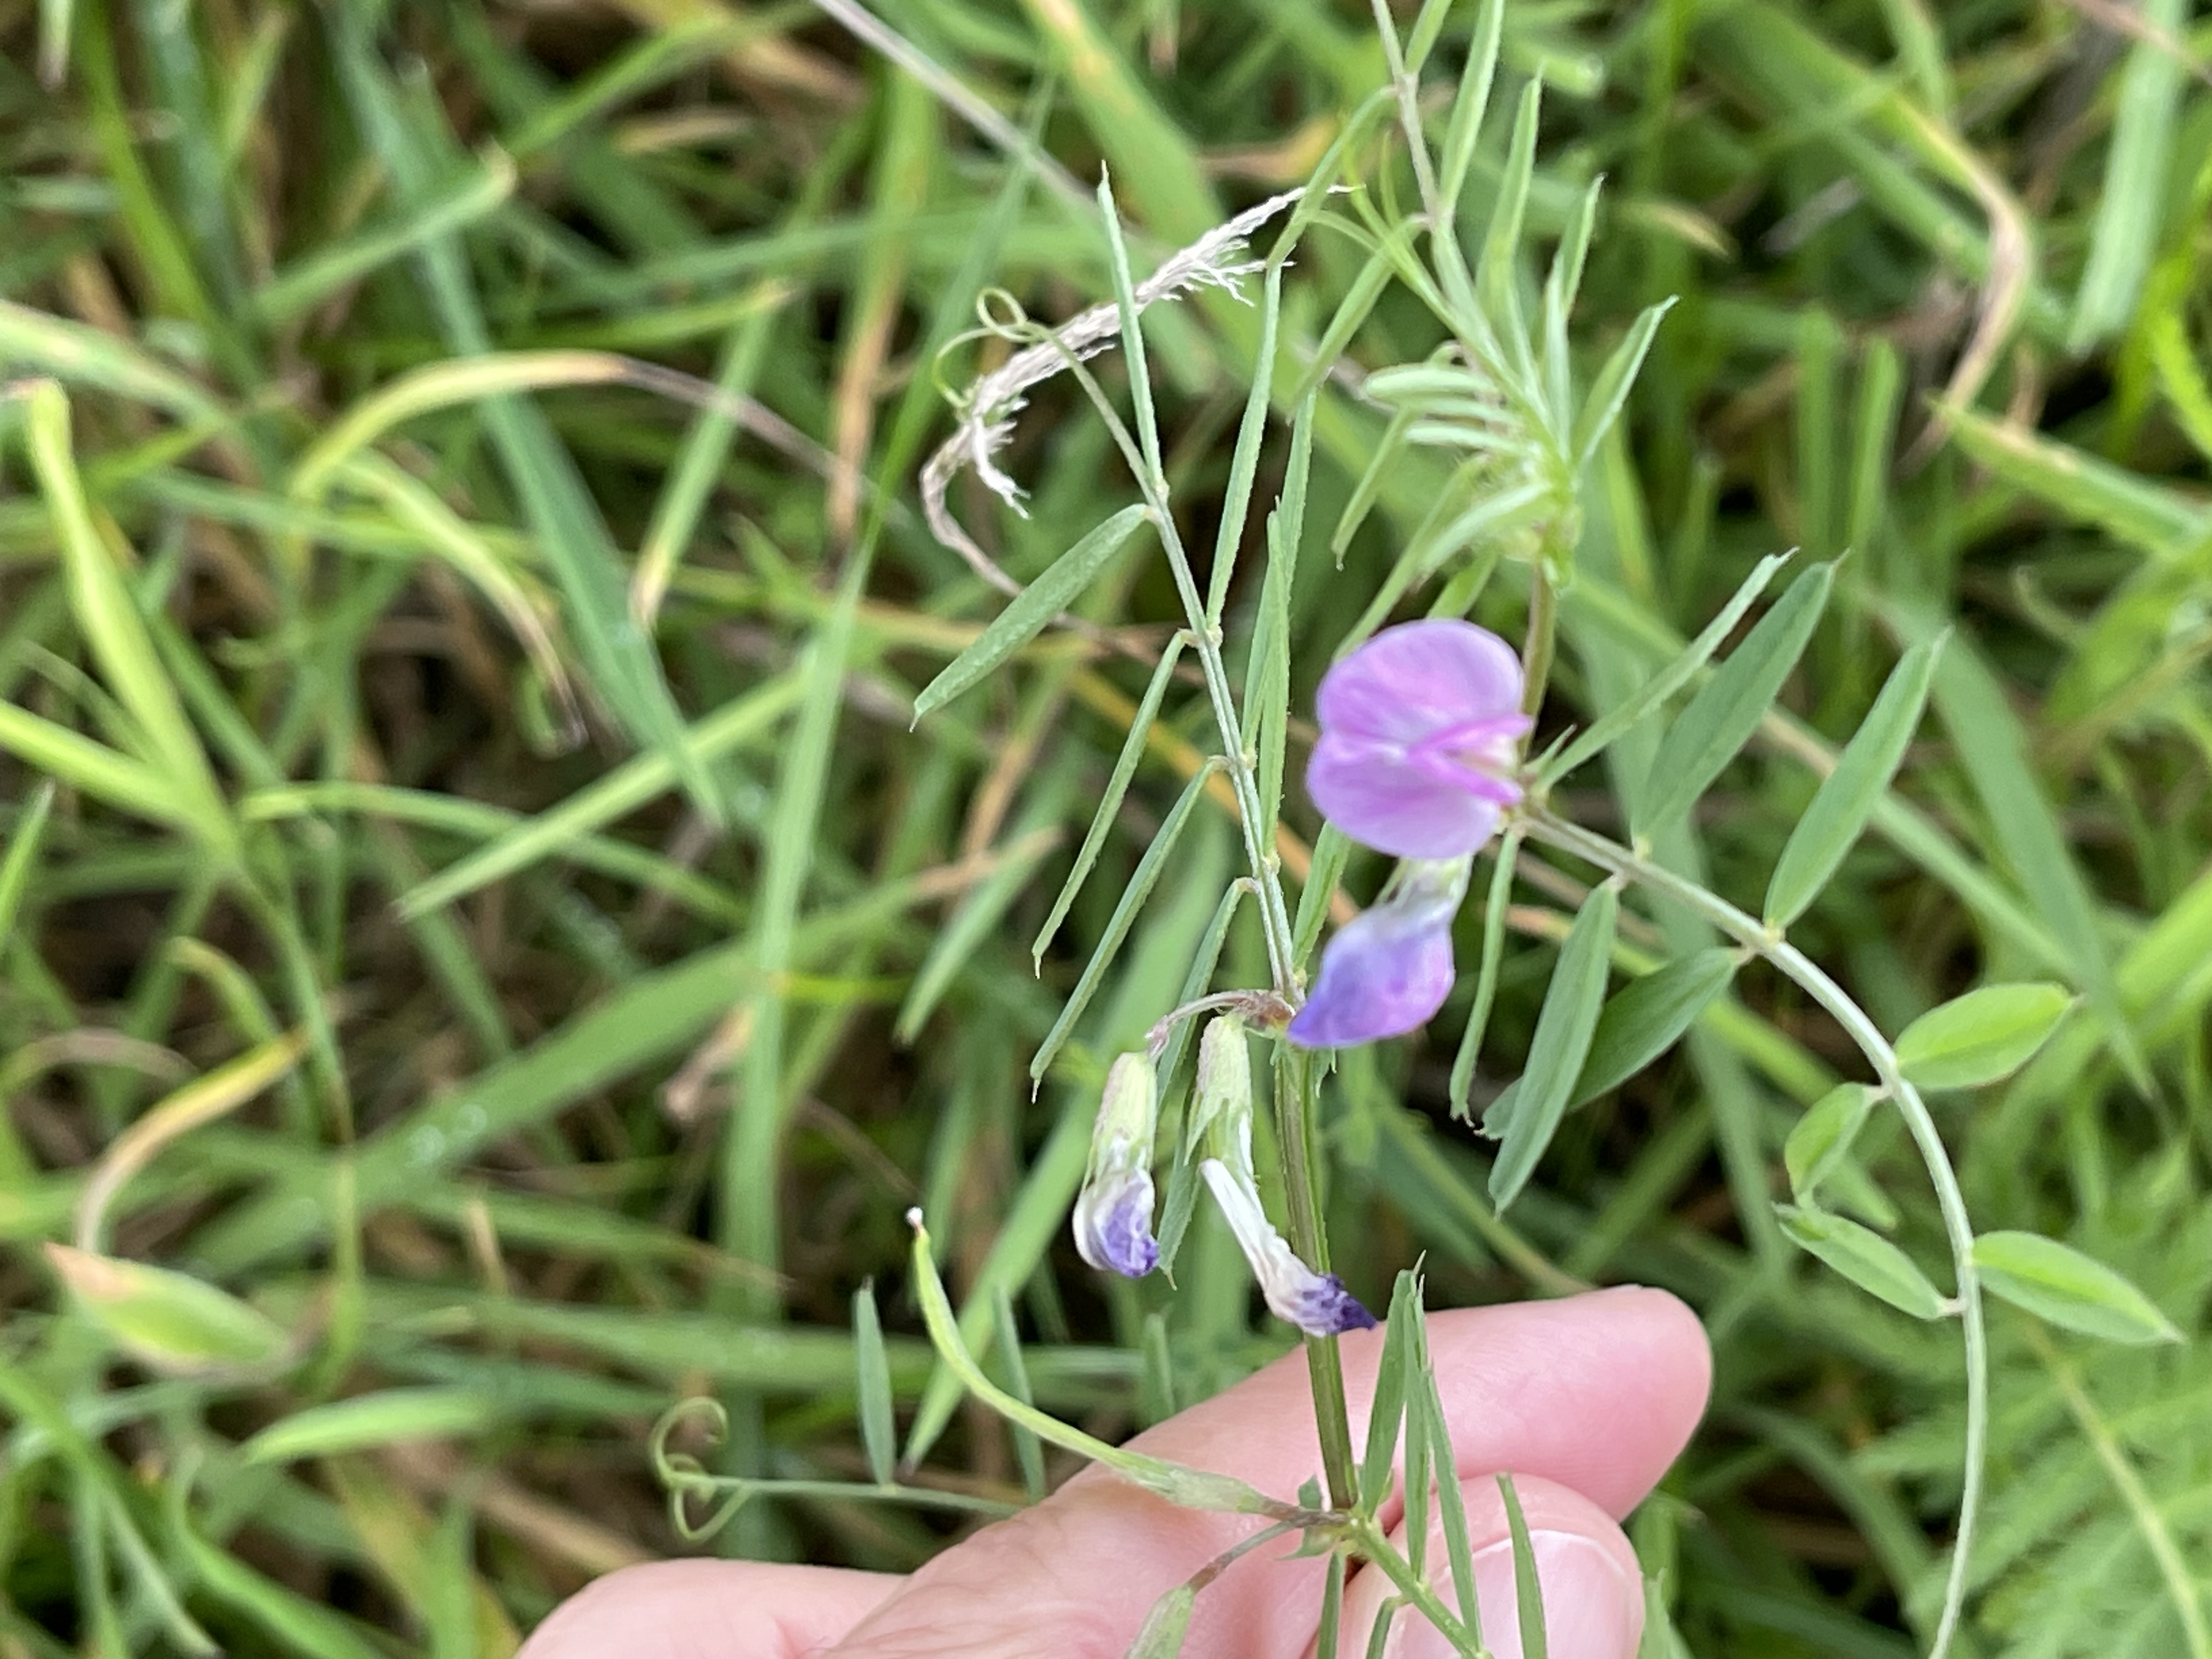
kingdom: Plantae
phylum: Tracheophyta
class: Magnoliopsida
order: Fabales
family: Fabaceae
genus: Vicia
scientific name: Vicia sativa
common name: Smalbladet vikke
